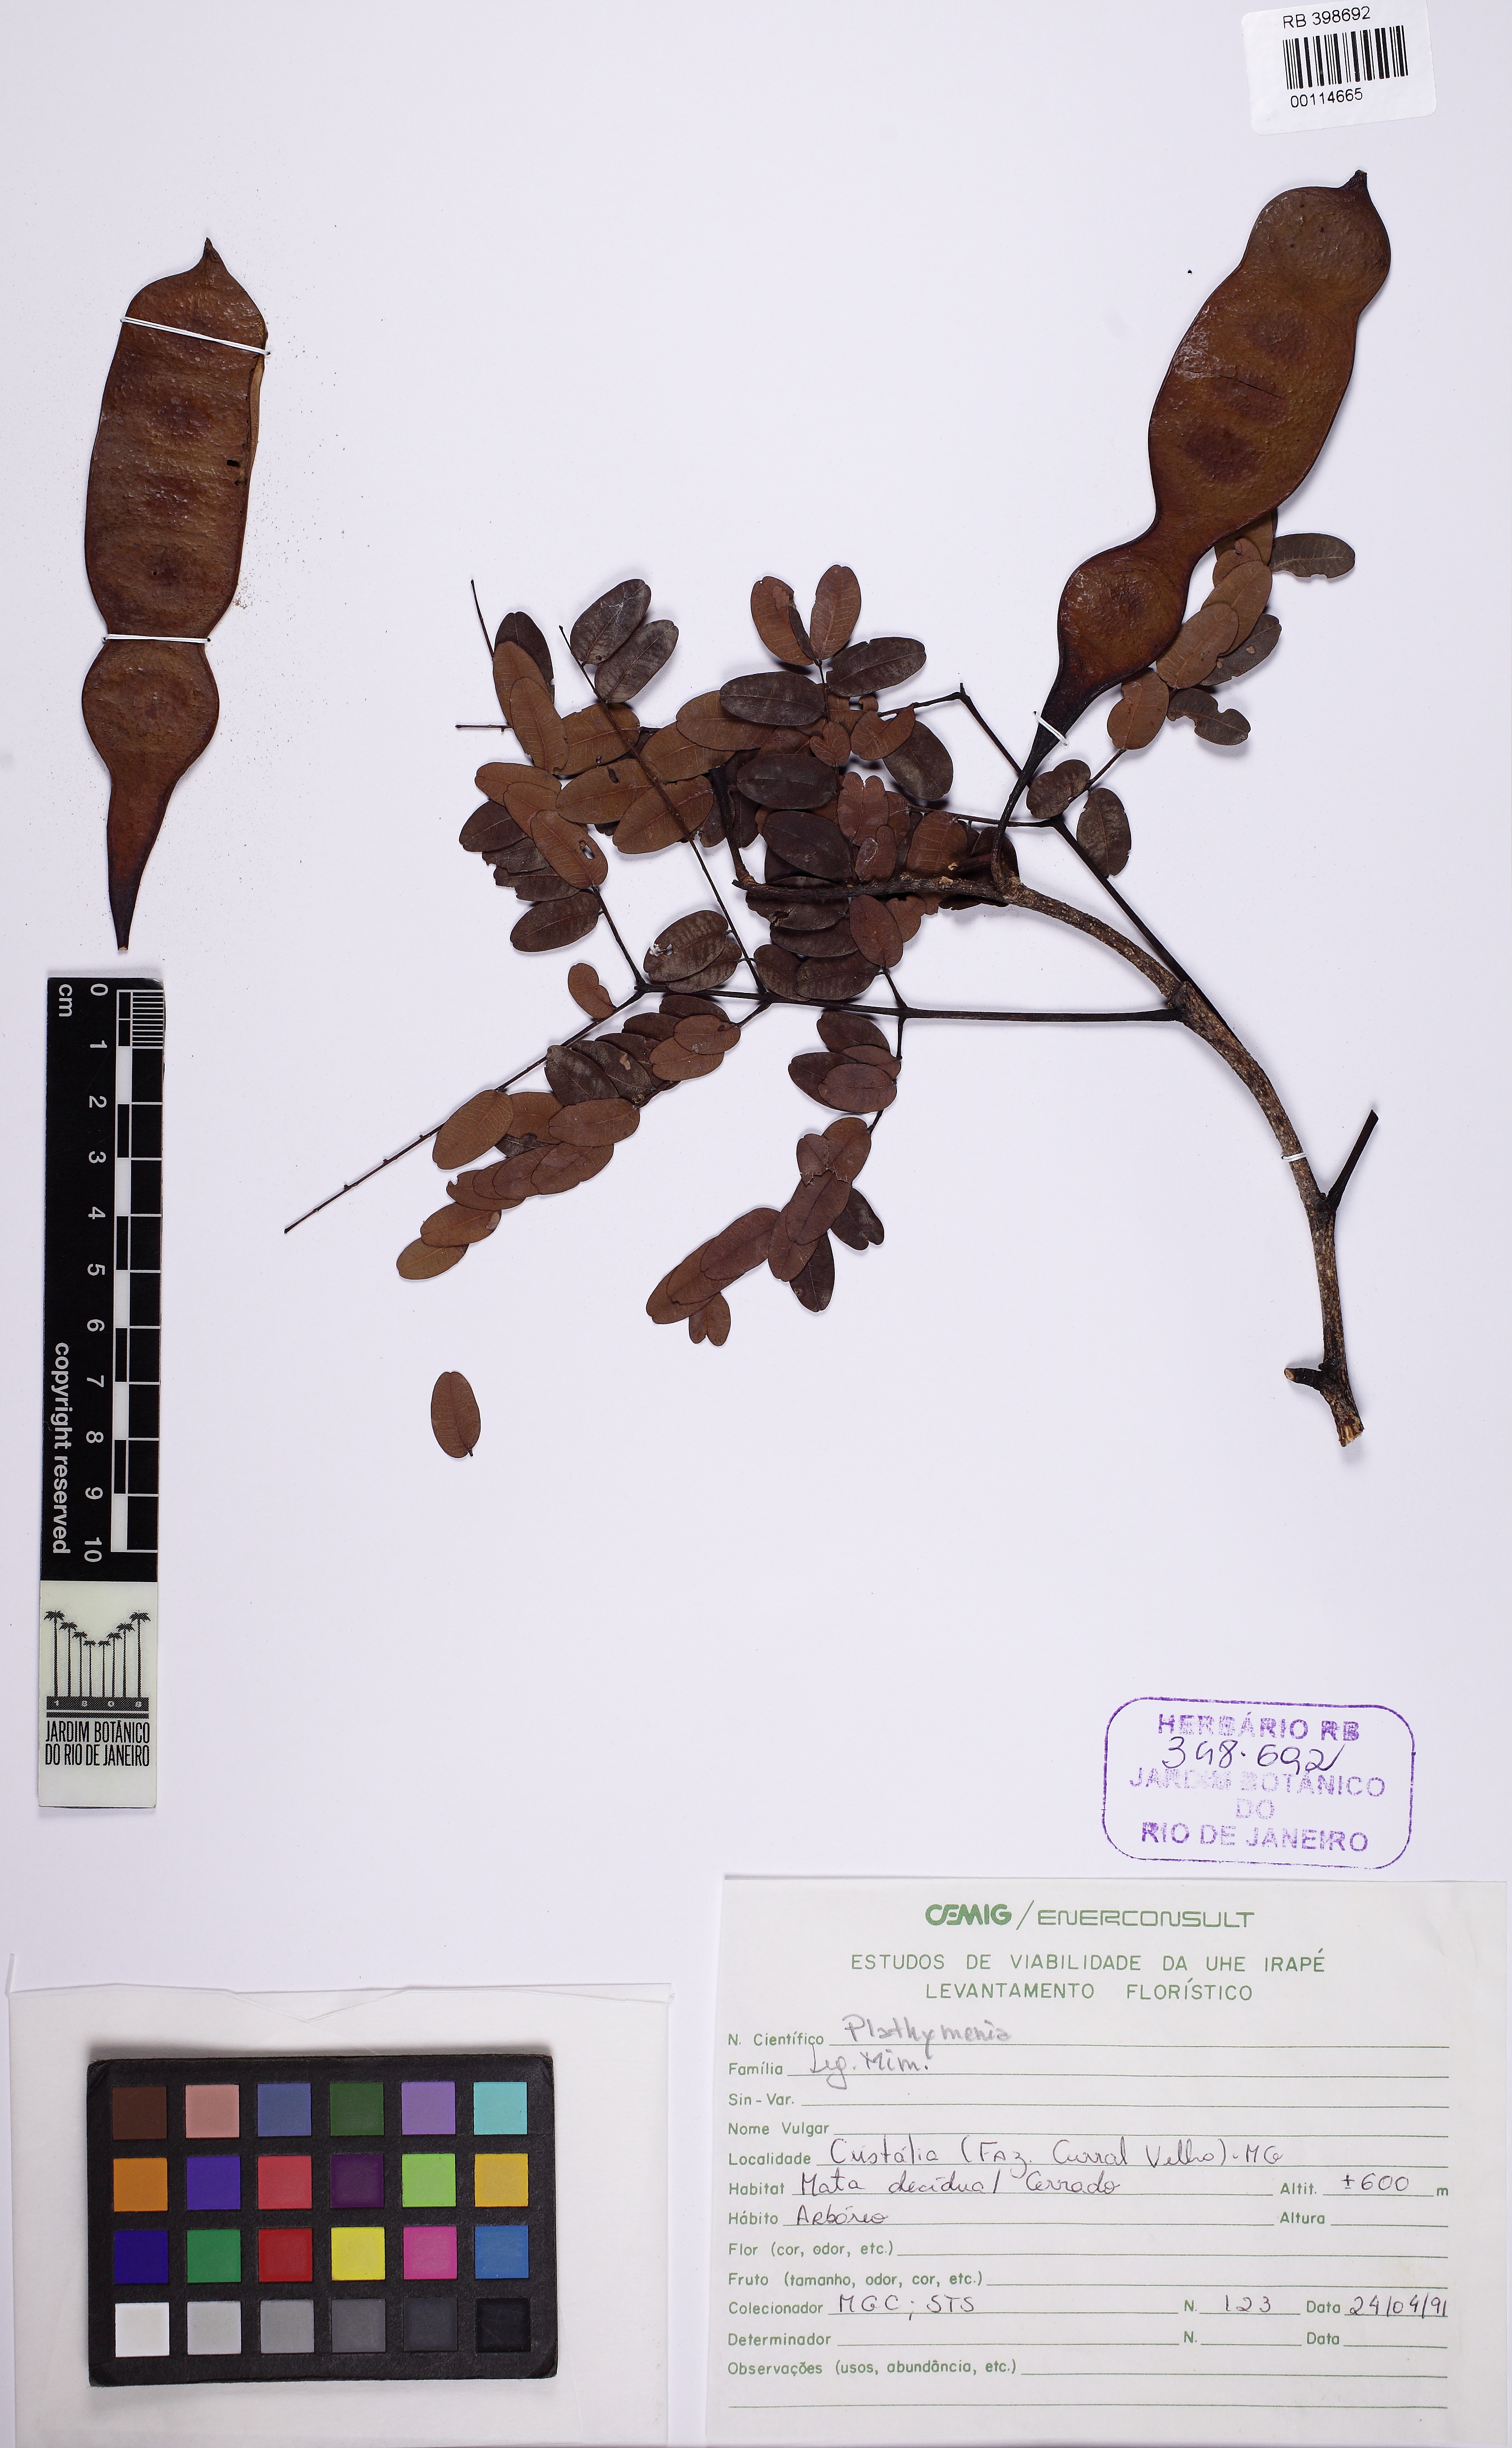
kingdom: Plantae
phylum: Tracheophyta
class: Magnoliopsida
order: Fabales
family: Fabaceae
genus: Plathymenia
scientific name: Plathymenia
